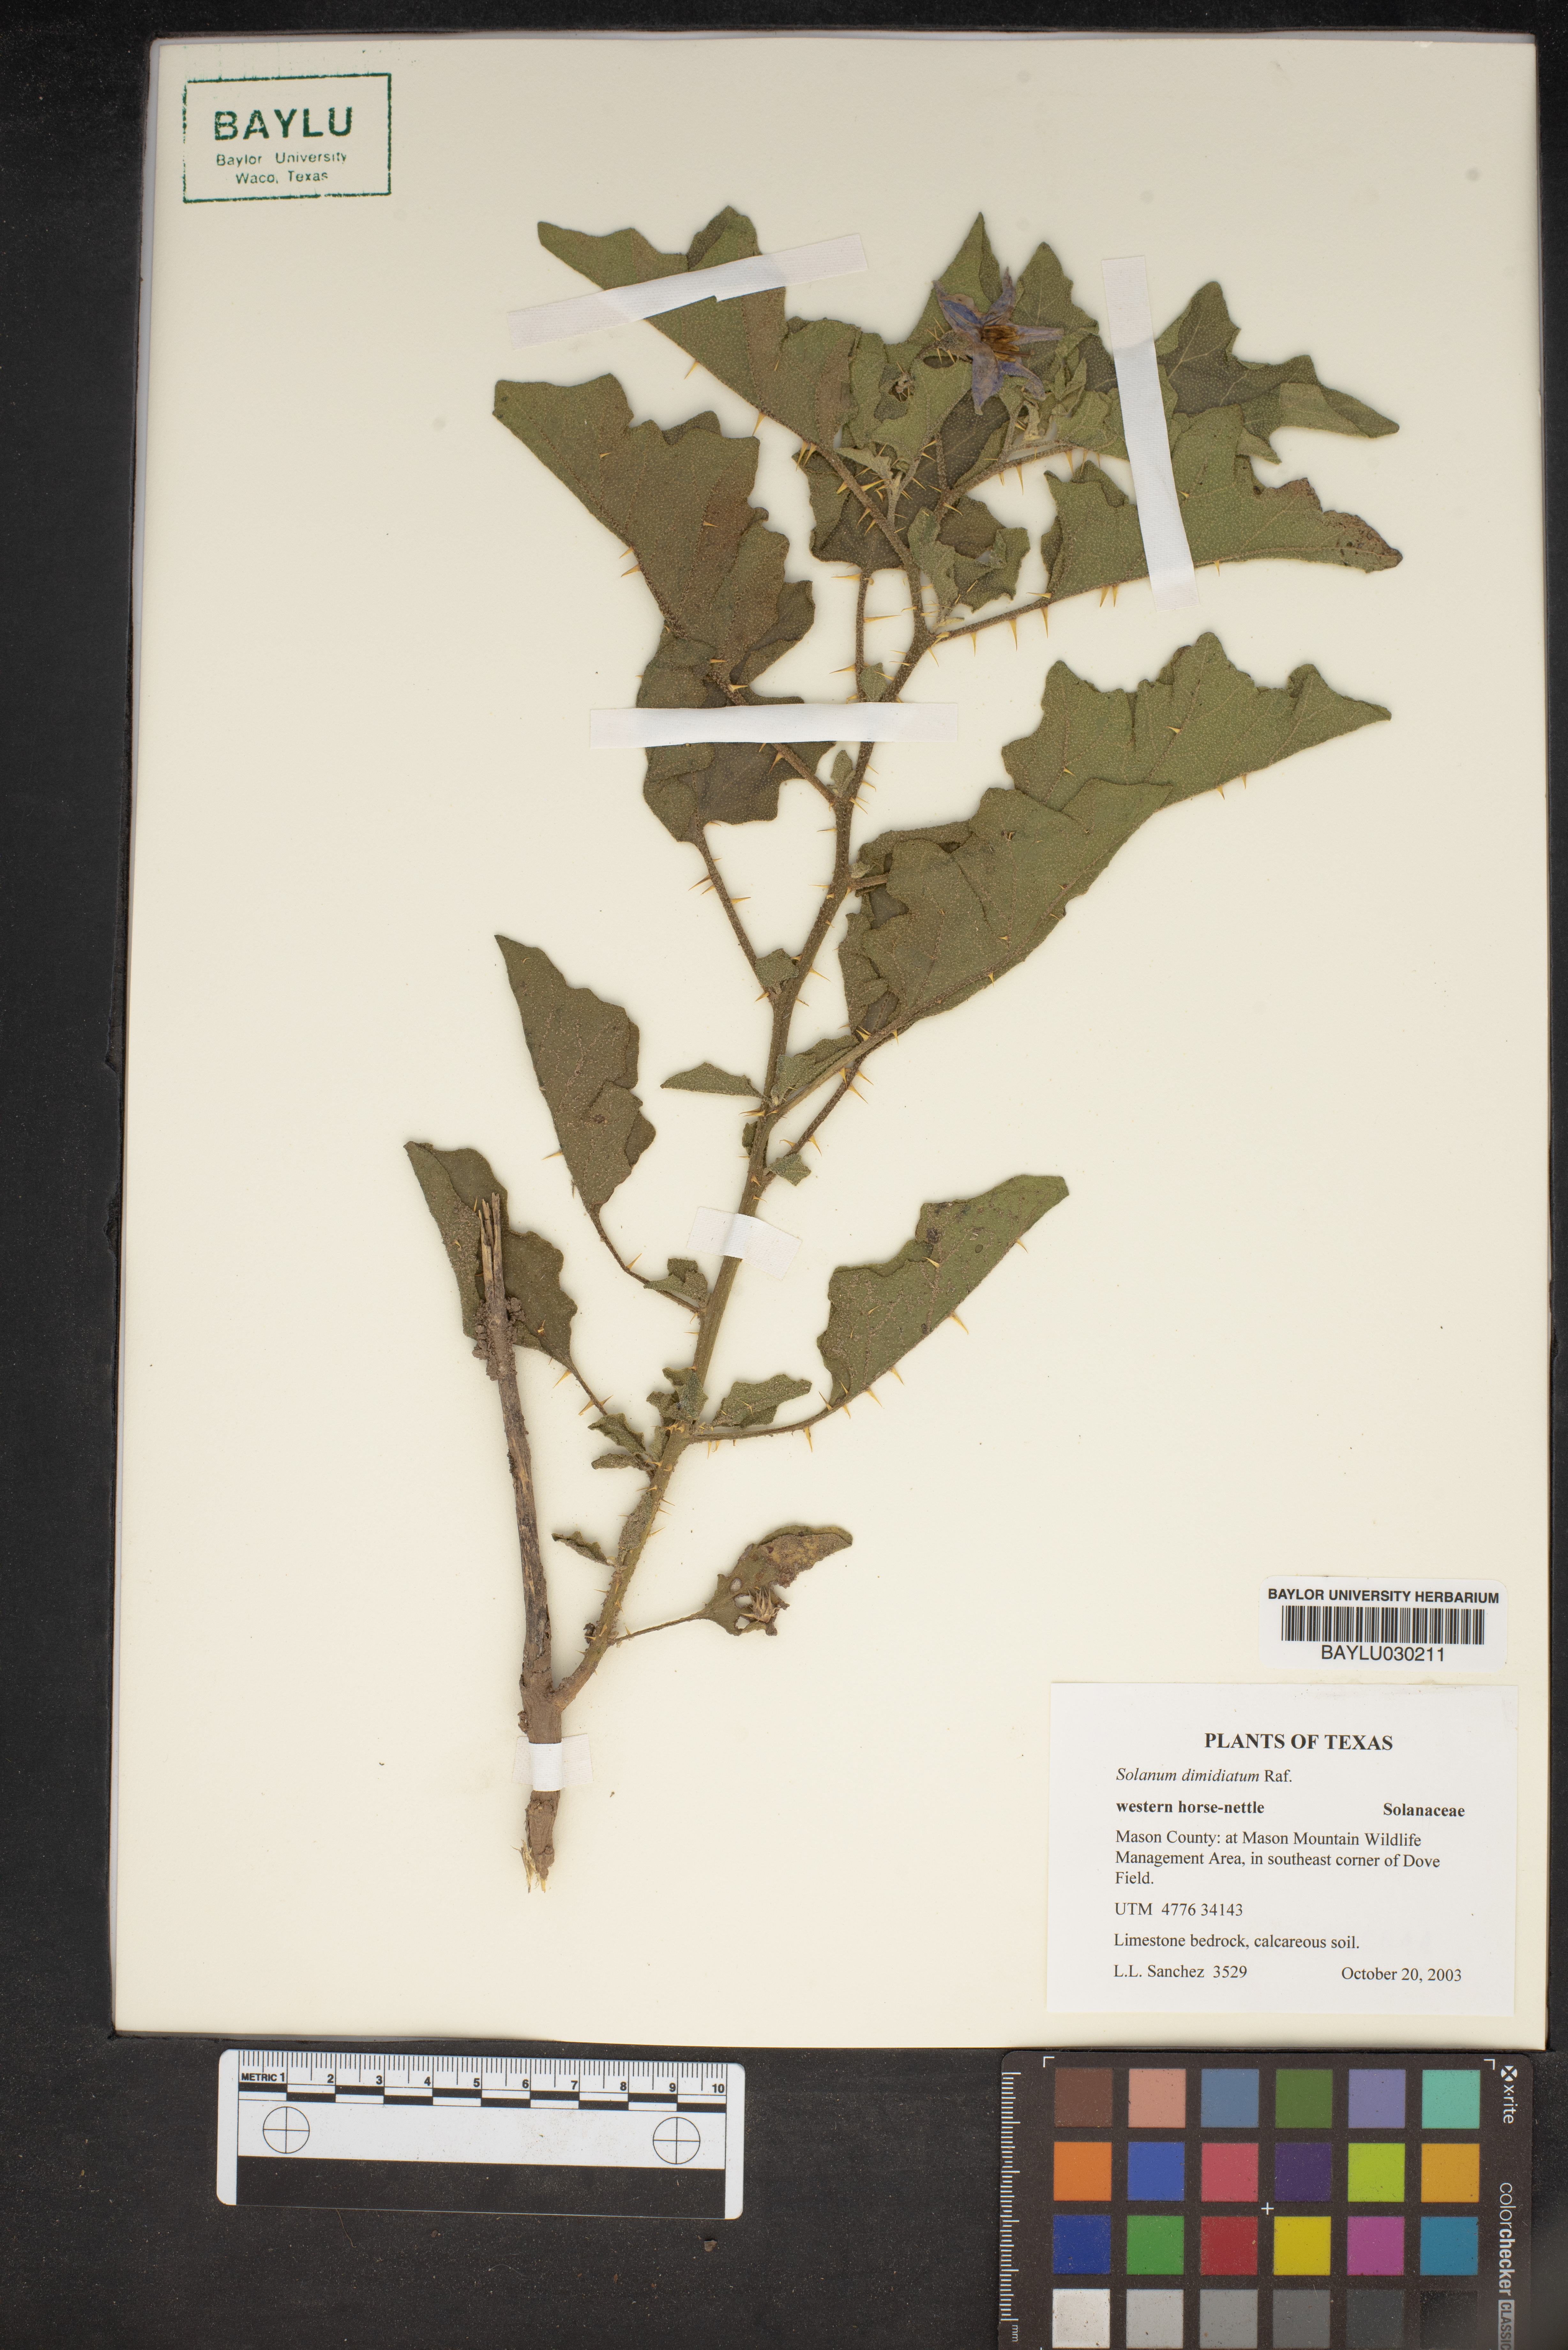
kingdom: Plantae
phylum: Tracheophyta
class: Magnoliopsida
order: Solanales
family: Solanaceae
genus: Solanum
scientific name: Solanum dimidiatum
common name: Carolina horse-nettle
